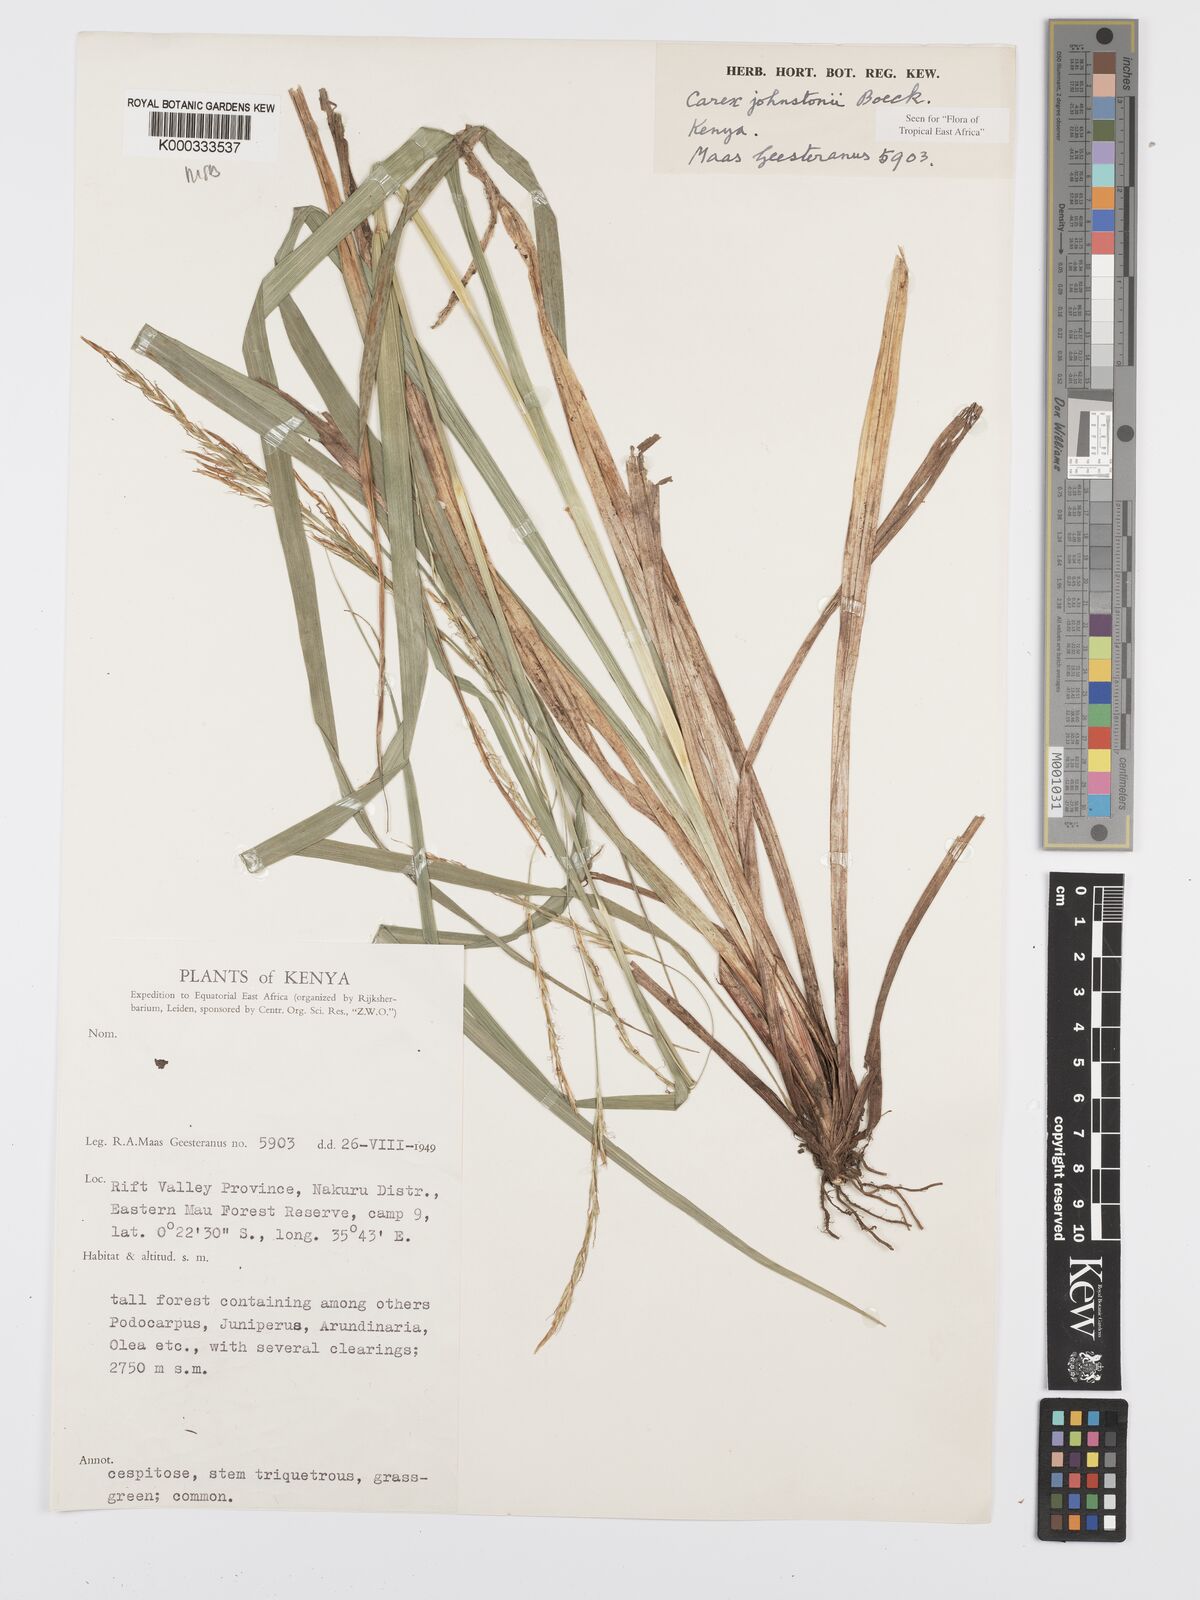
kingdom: Plantae
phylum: Tracheophyta
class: Liliopsida
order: Poales
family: Cyperaceae
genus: Carex
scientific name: Carex johnstonii
